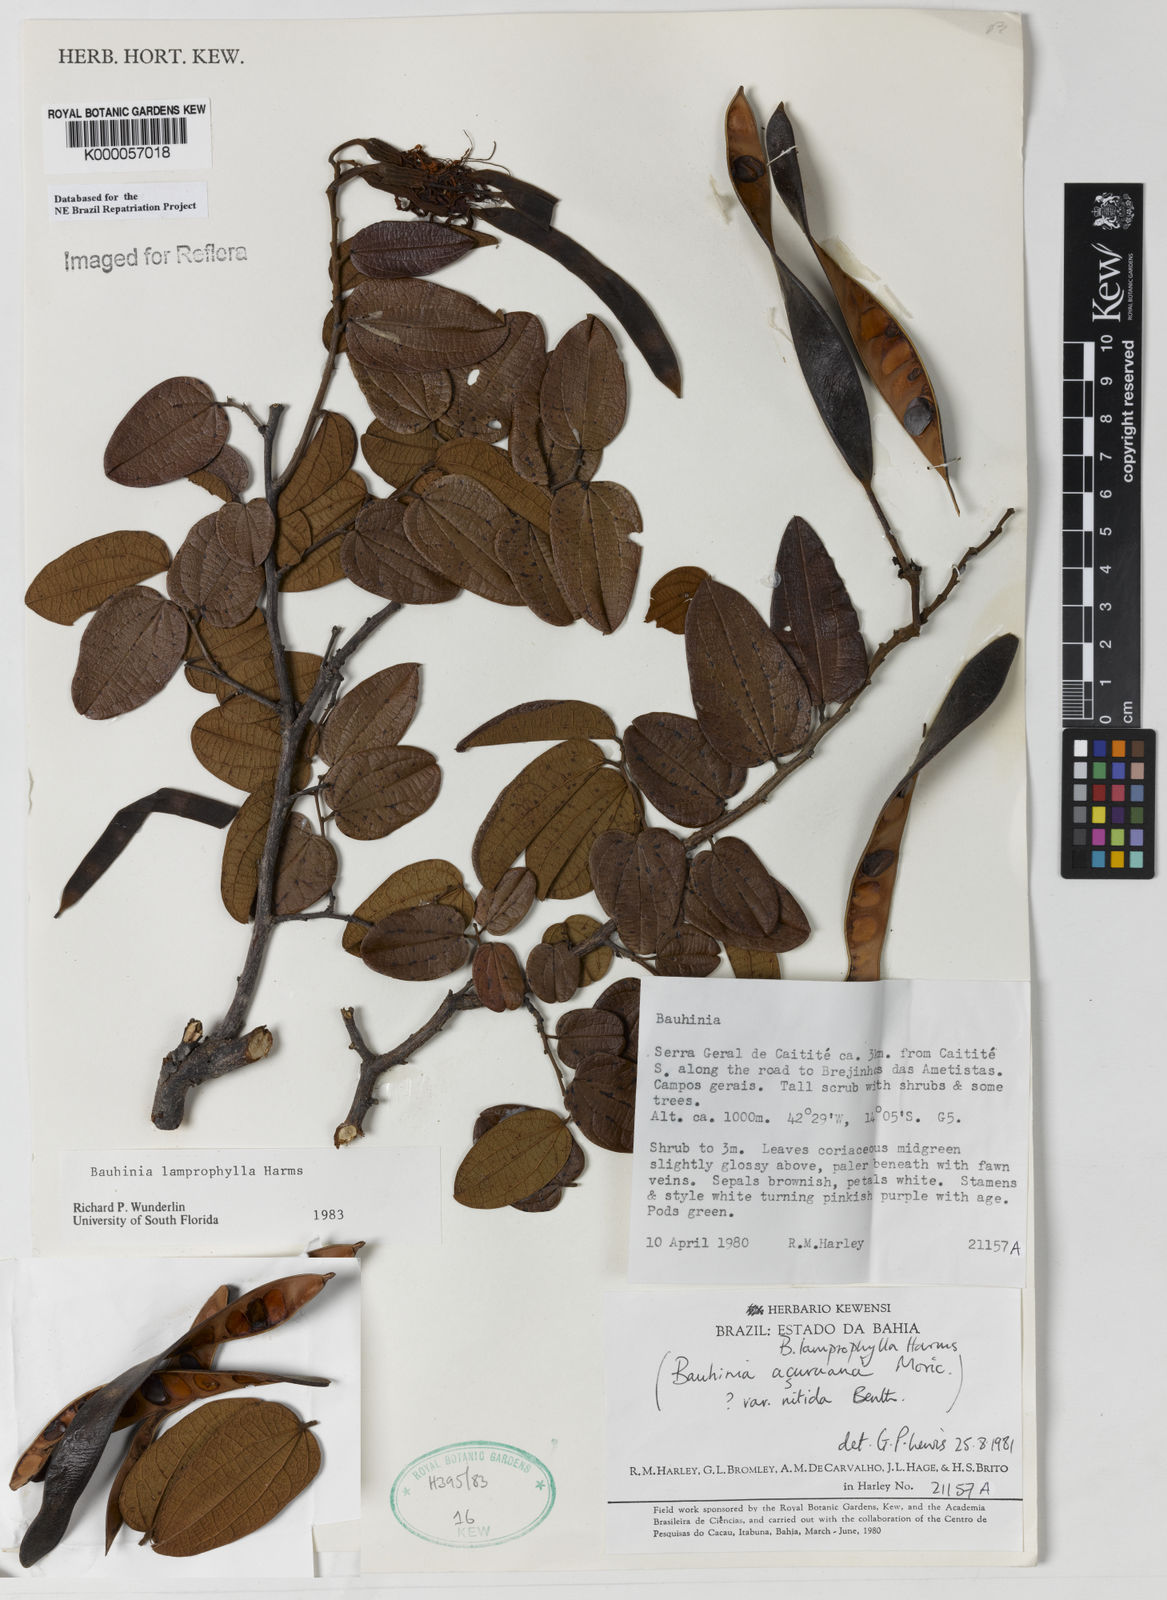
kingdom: Plantae
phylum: Tracheophyta
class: Magnoliopsida
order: Fabales
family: Fabaceae
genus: Bauhinia
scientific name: Bauhinia acuruana
